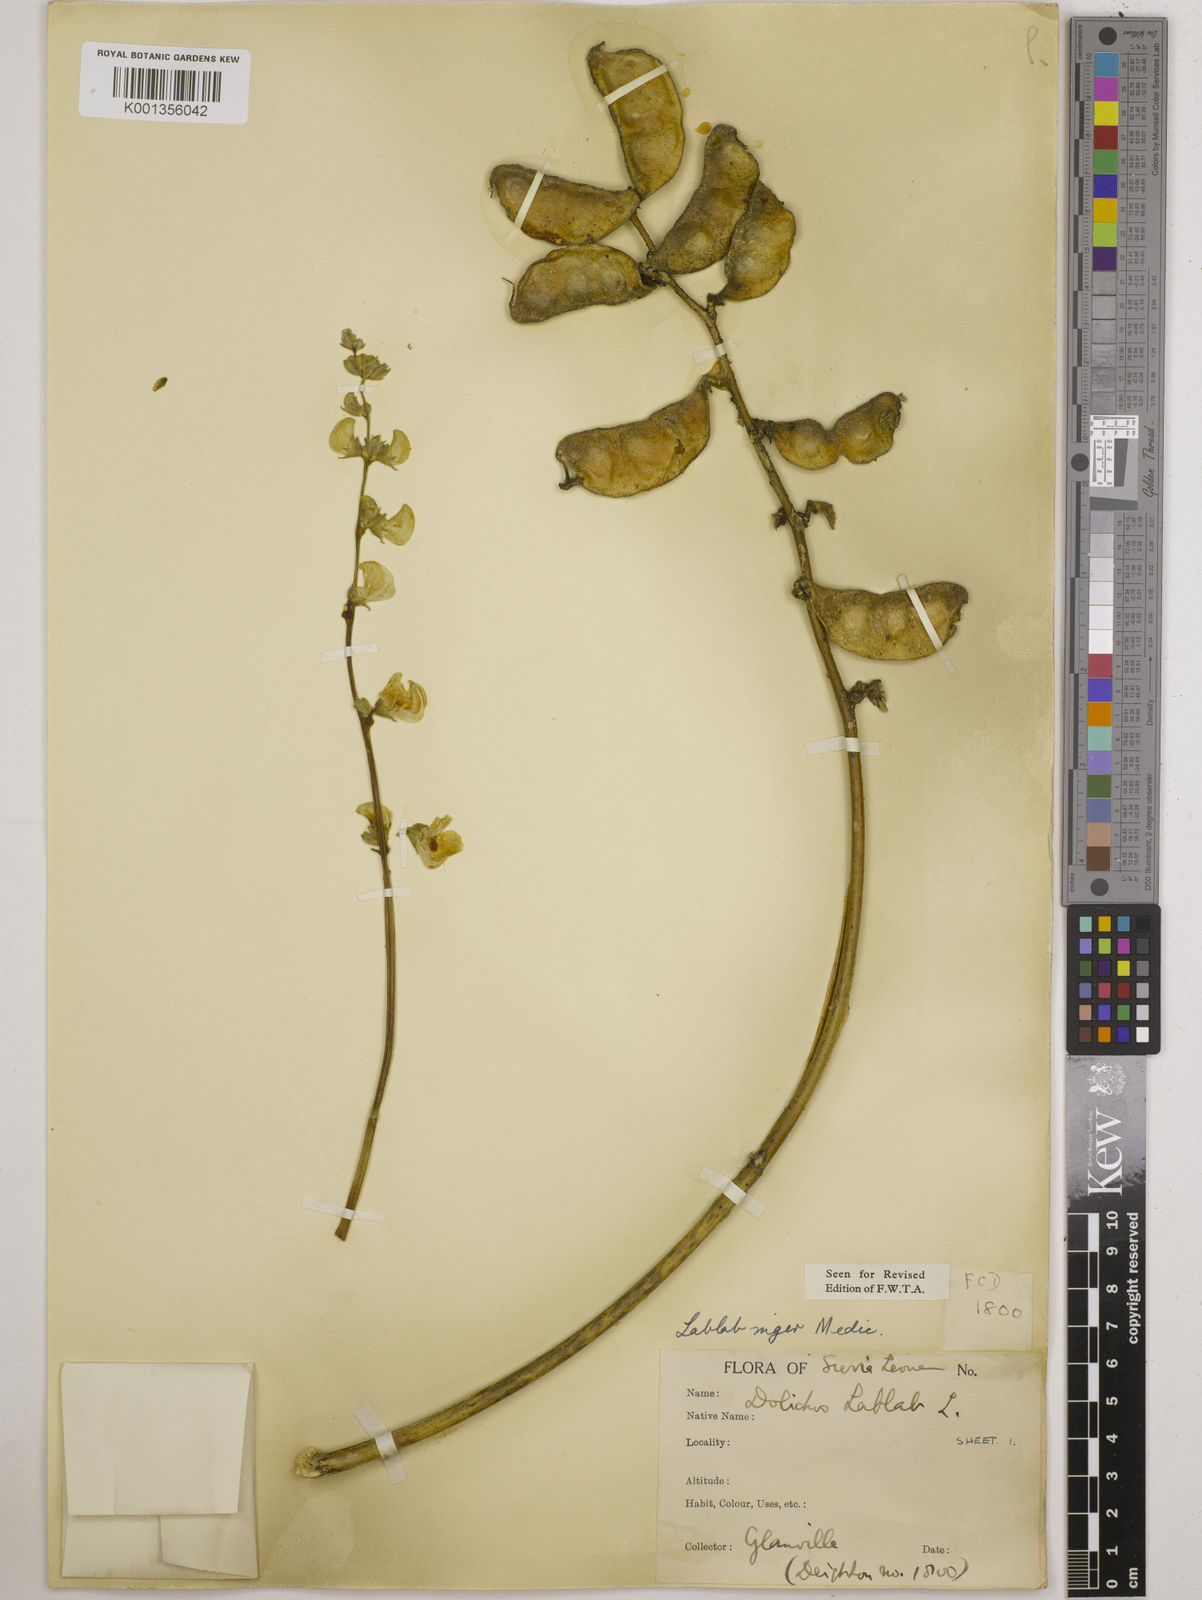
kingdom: Plantae
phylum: Tracheophyta
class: Magnoliopsida
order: Fabales
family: Fabaceae
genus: Lablab
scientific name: Lablab purpureus
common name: Lablab-bean
